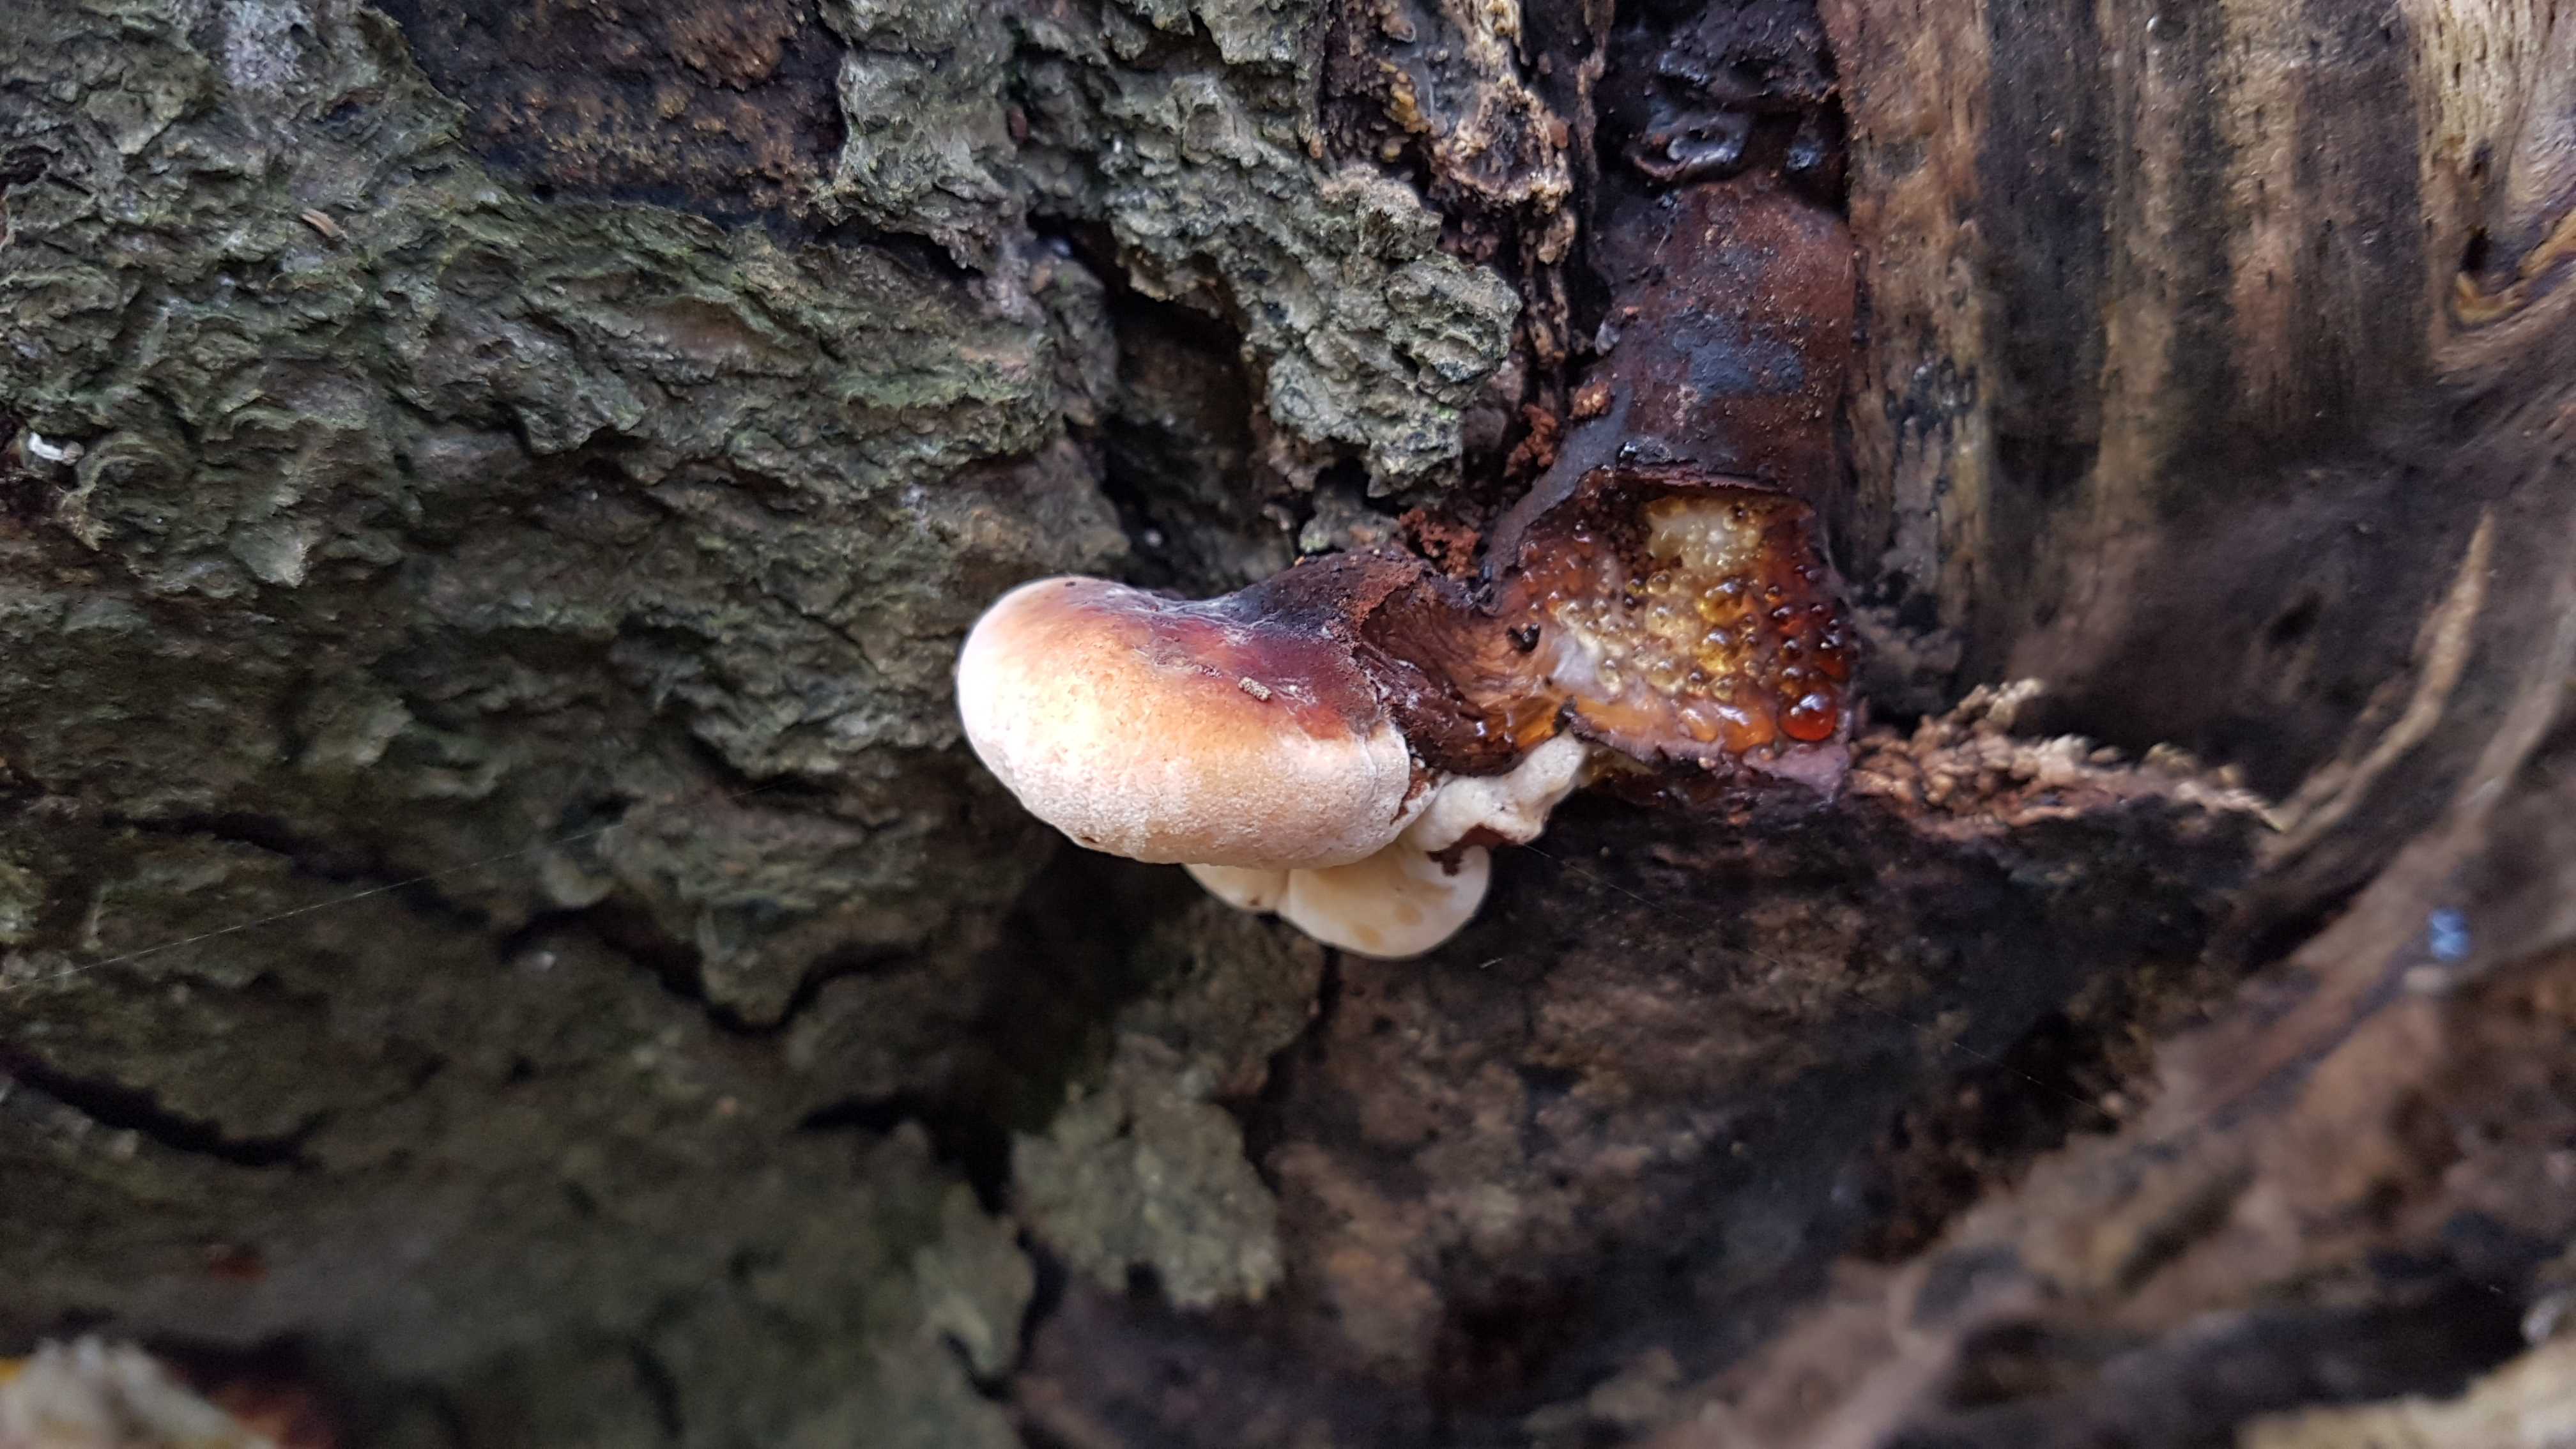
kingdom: Fungi
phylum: Basidiomycota
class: Agaricomycetes
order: Polyporales
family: Ischnodermataceae
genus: Ischnoderma
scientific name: Ischnoderma resinosum
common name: løv-tjæreporesvamp
